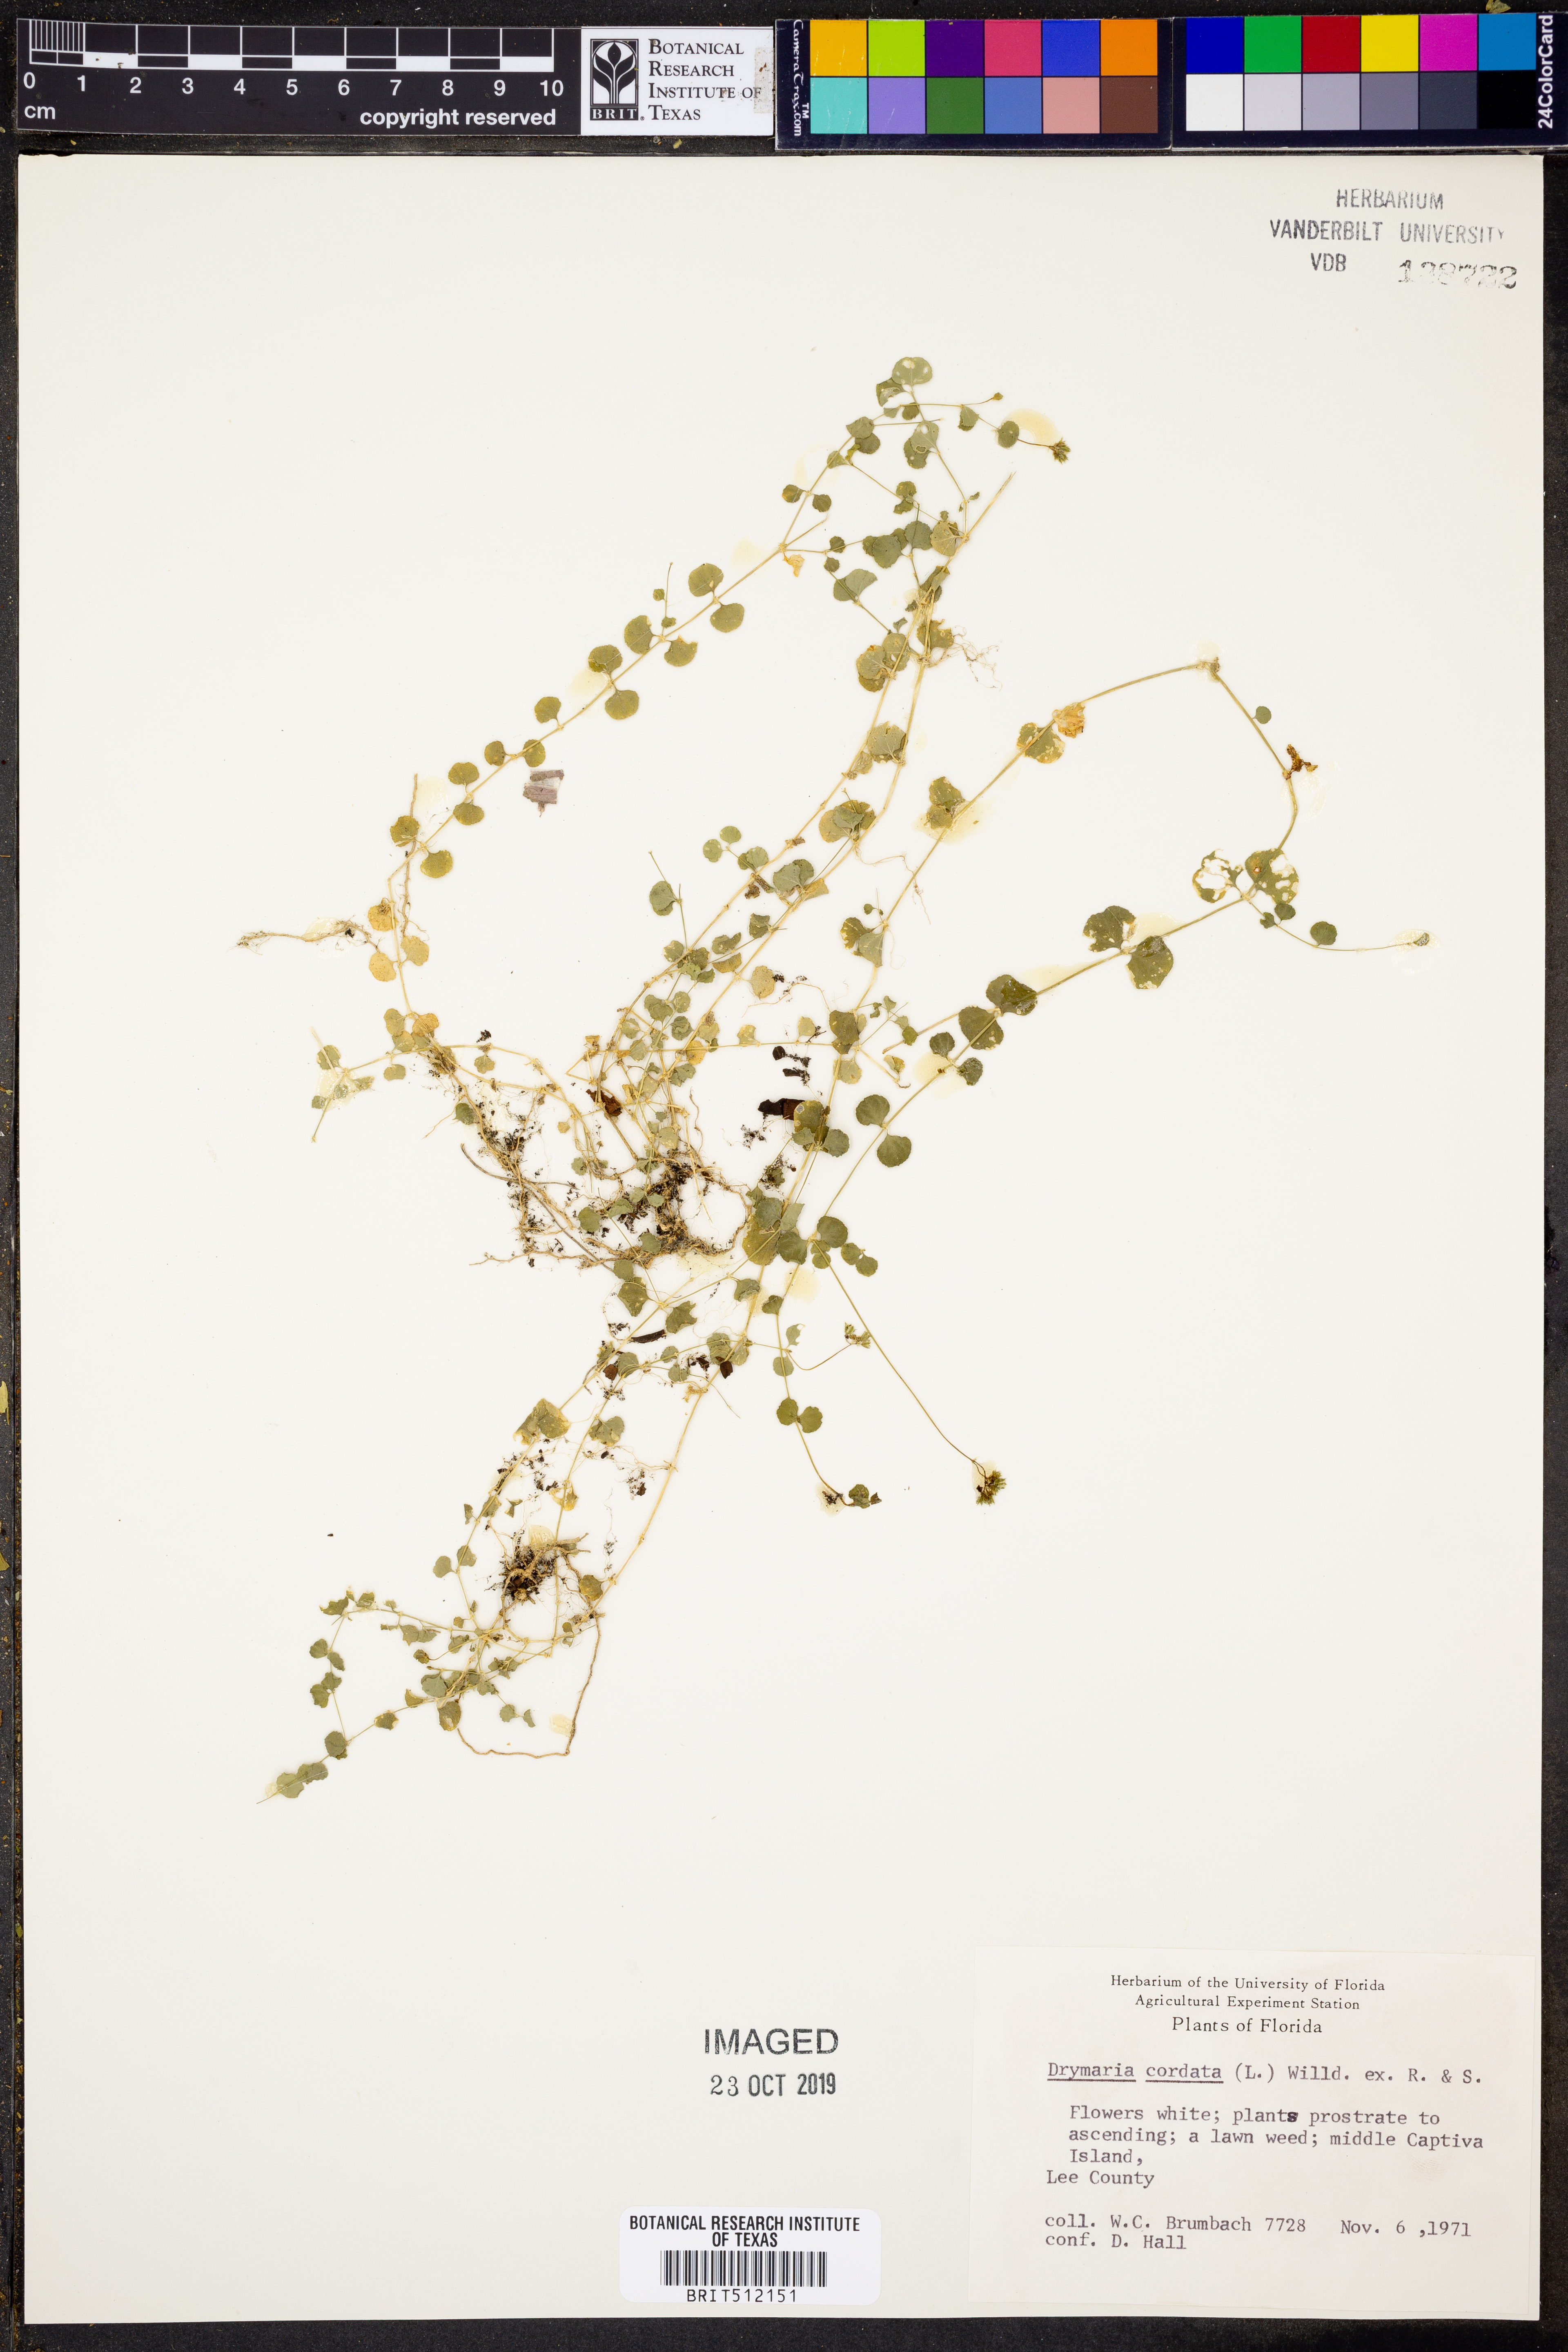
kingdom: Plantae
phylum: Tracheophyta
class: Magnoliopsida
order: Caryophyllales
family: Caryophyllaceae
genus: Drymaria
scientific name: Drymaria cordata
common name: Whitesnow
